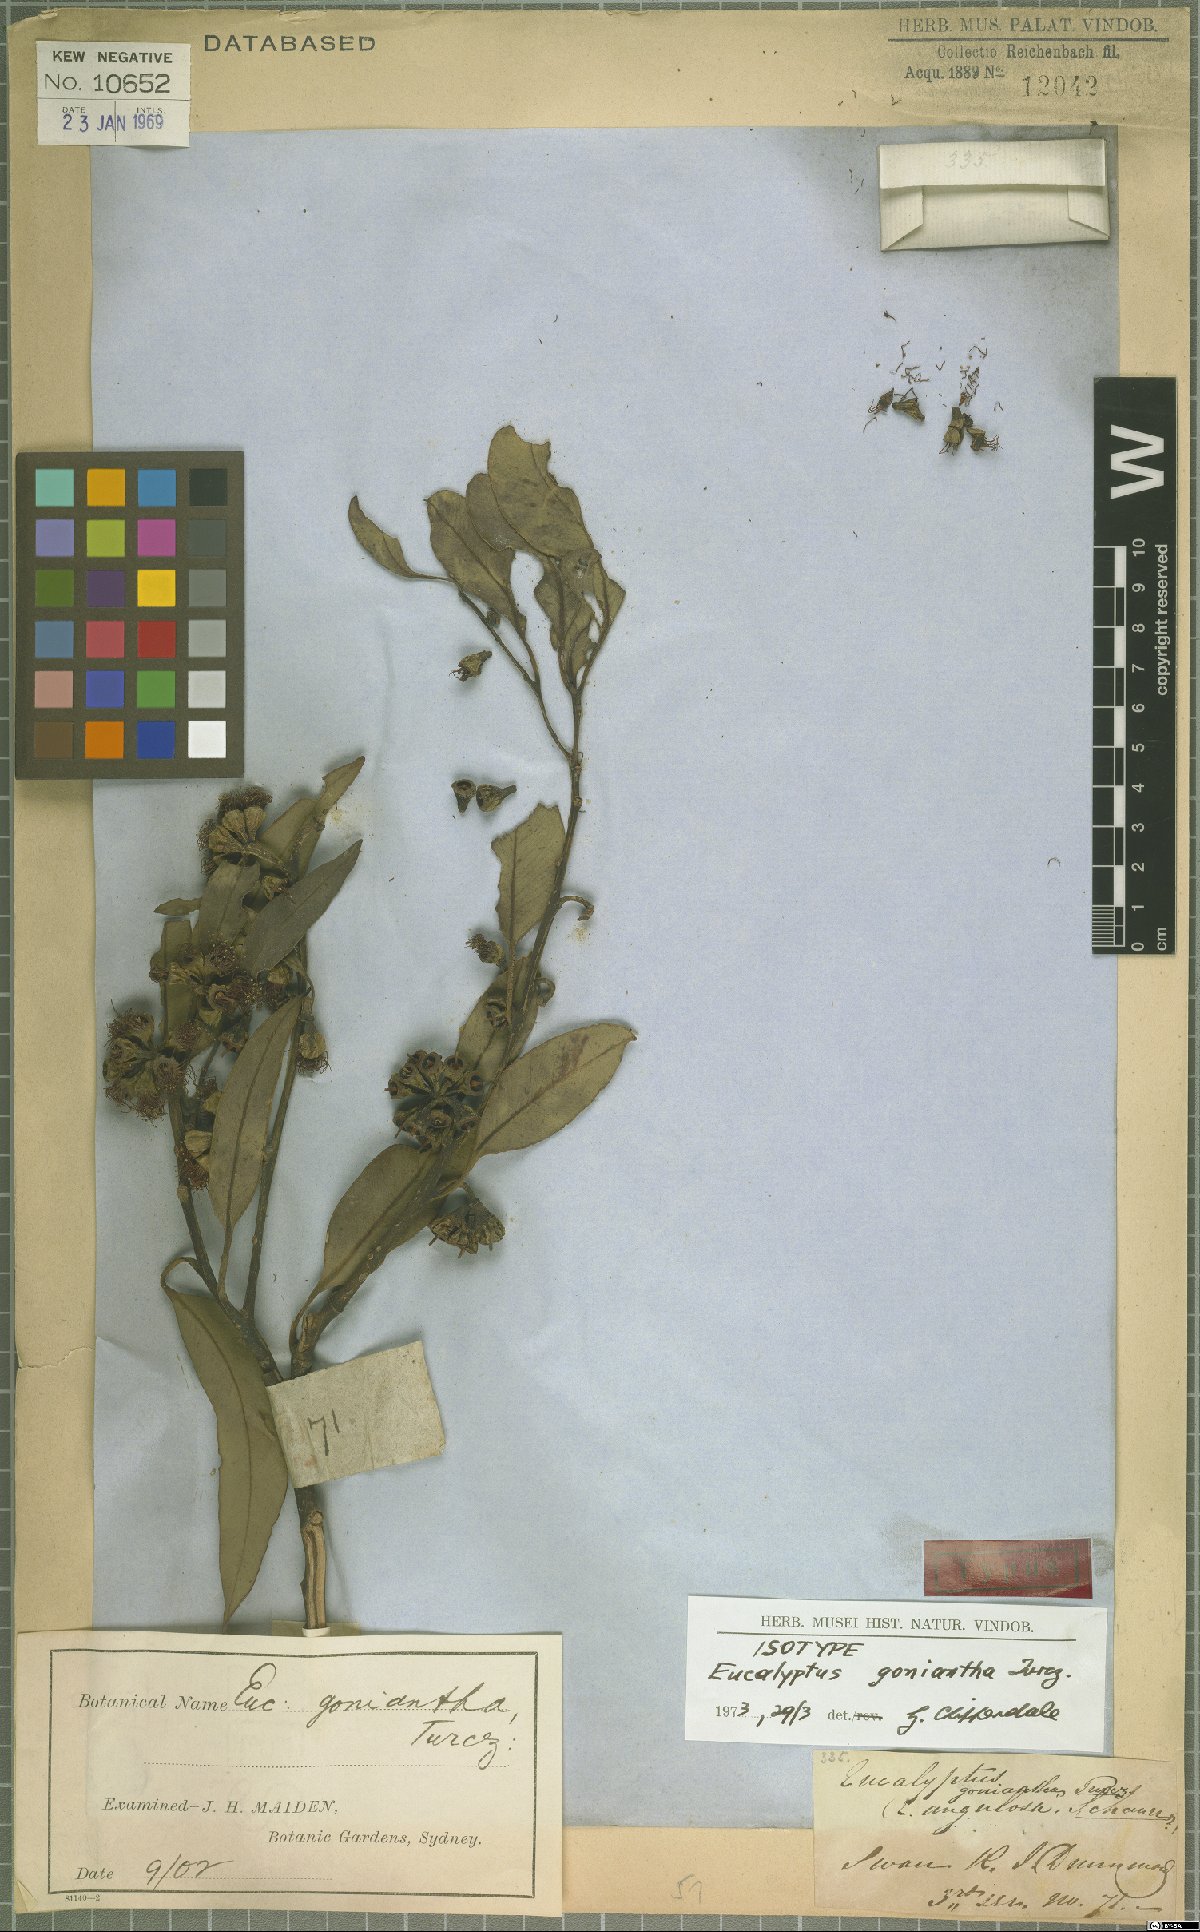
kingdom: Plantae
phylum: Tracheophyta
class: Magnoliopsida
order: Myrtales
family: Myrtaceae
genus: Eucalyptus
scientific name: Eucalyptus goniantha
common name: Kessell's mallee
